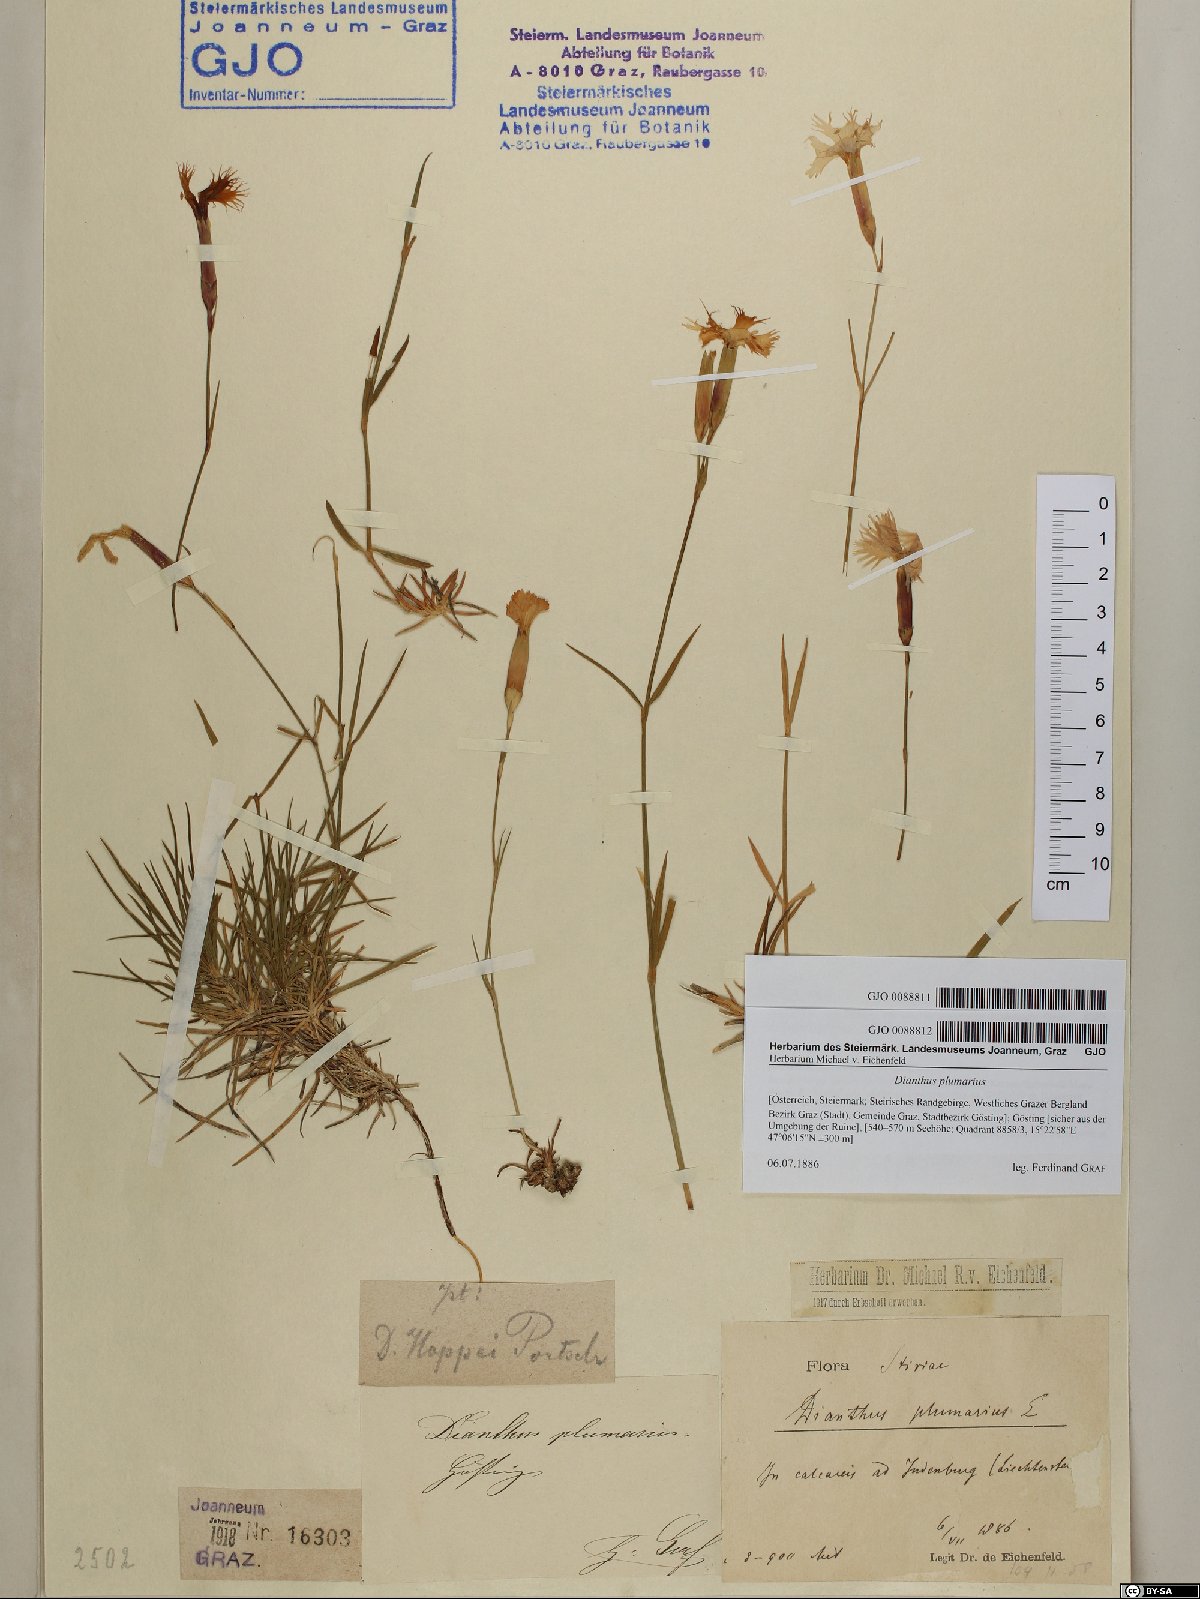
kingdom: Plantae
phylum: Tracheophyta
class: Magnoliopsida
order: Caryophyllales
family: Caryophyllaceae
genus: Dianthus
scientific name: Dianthus plumarius
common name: Pink
